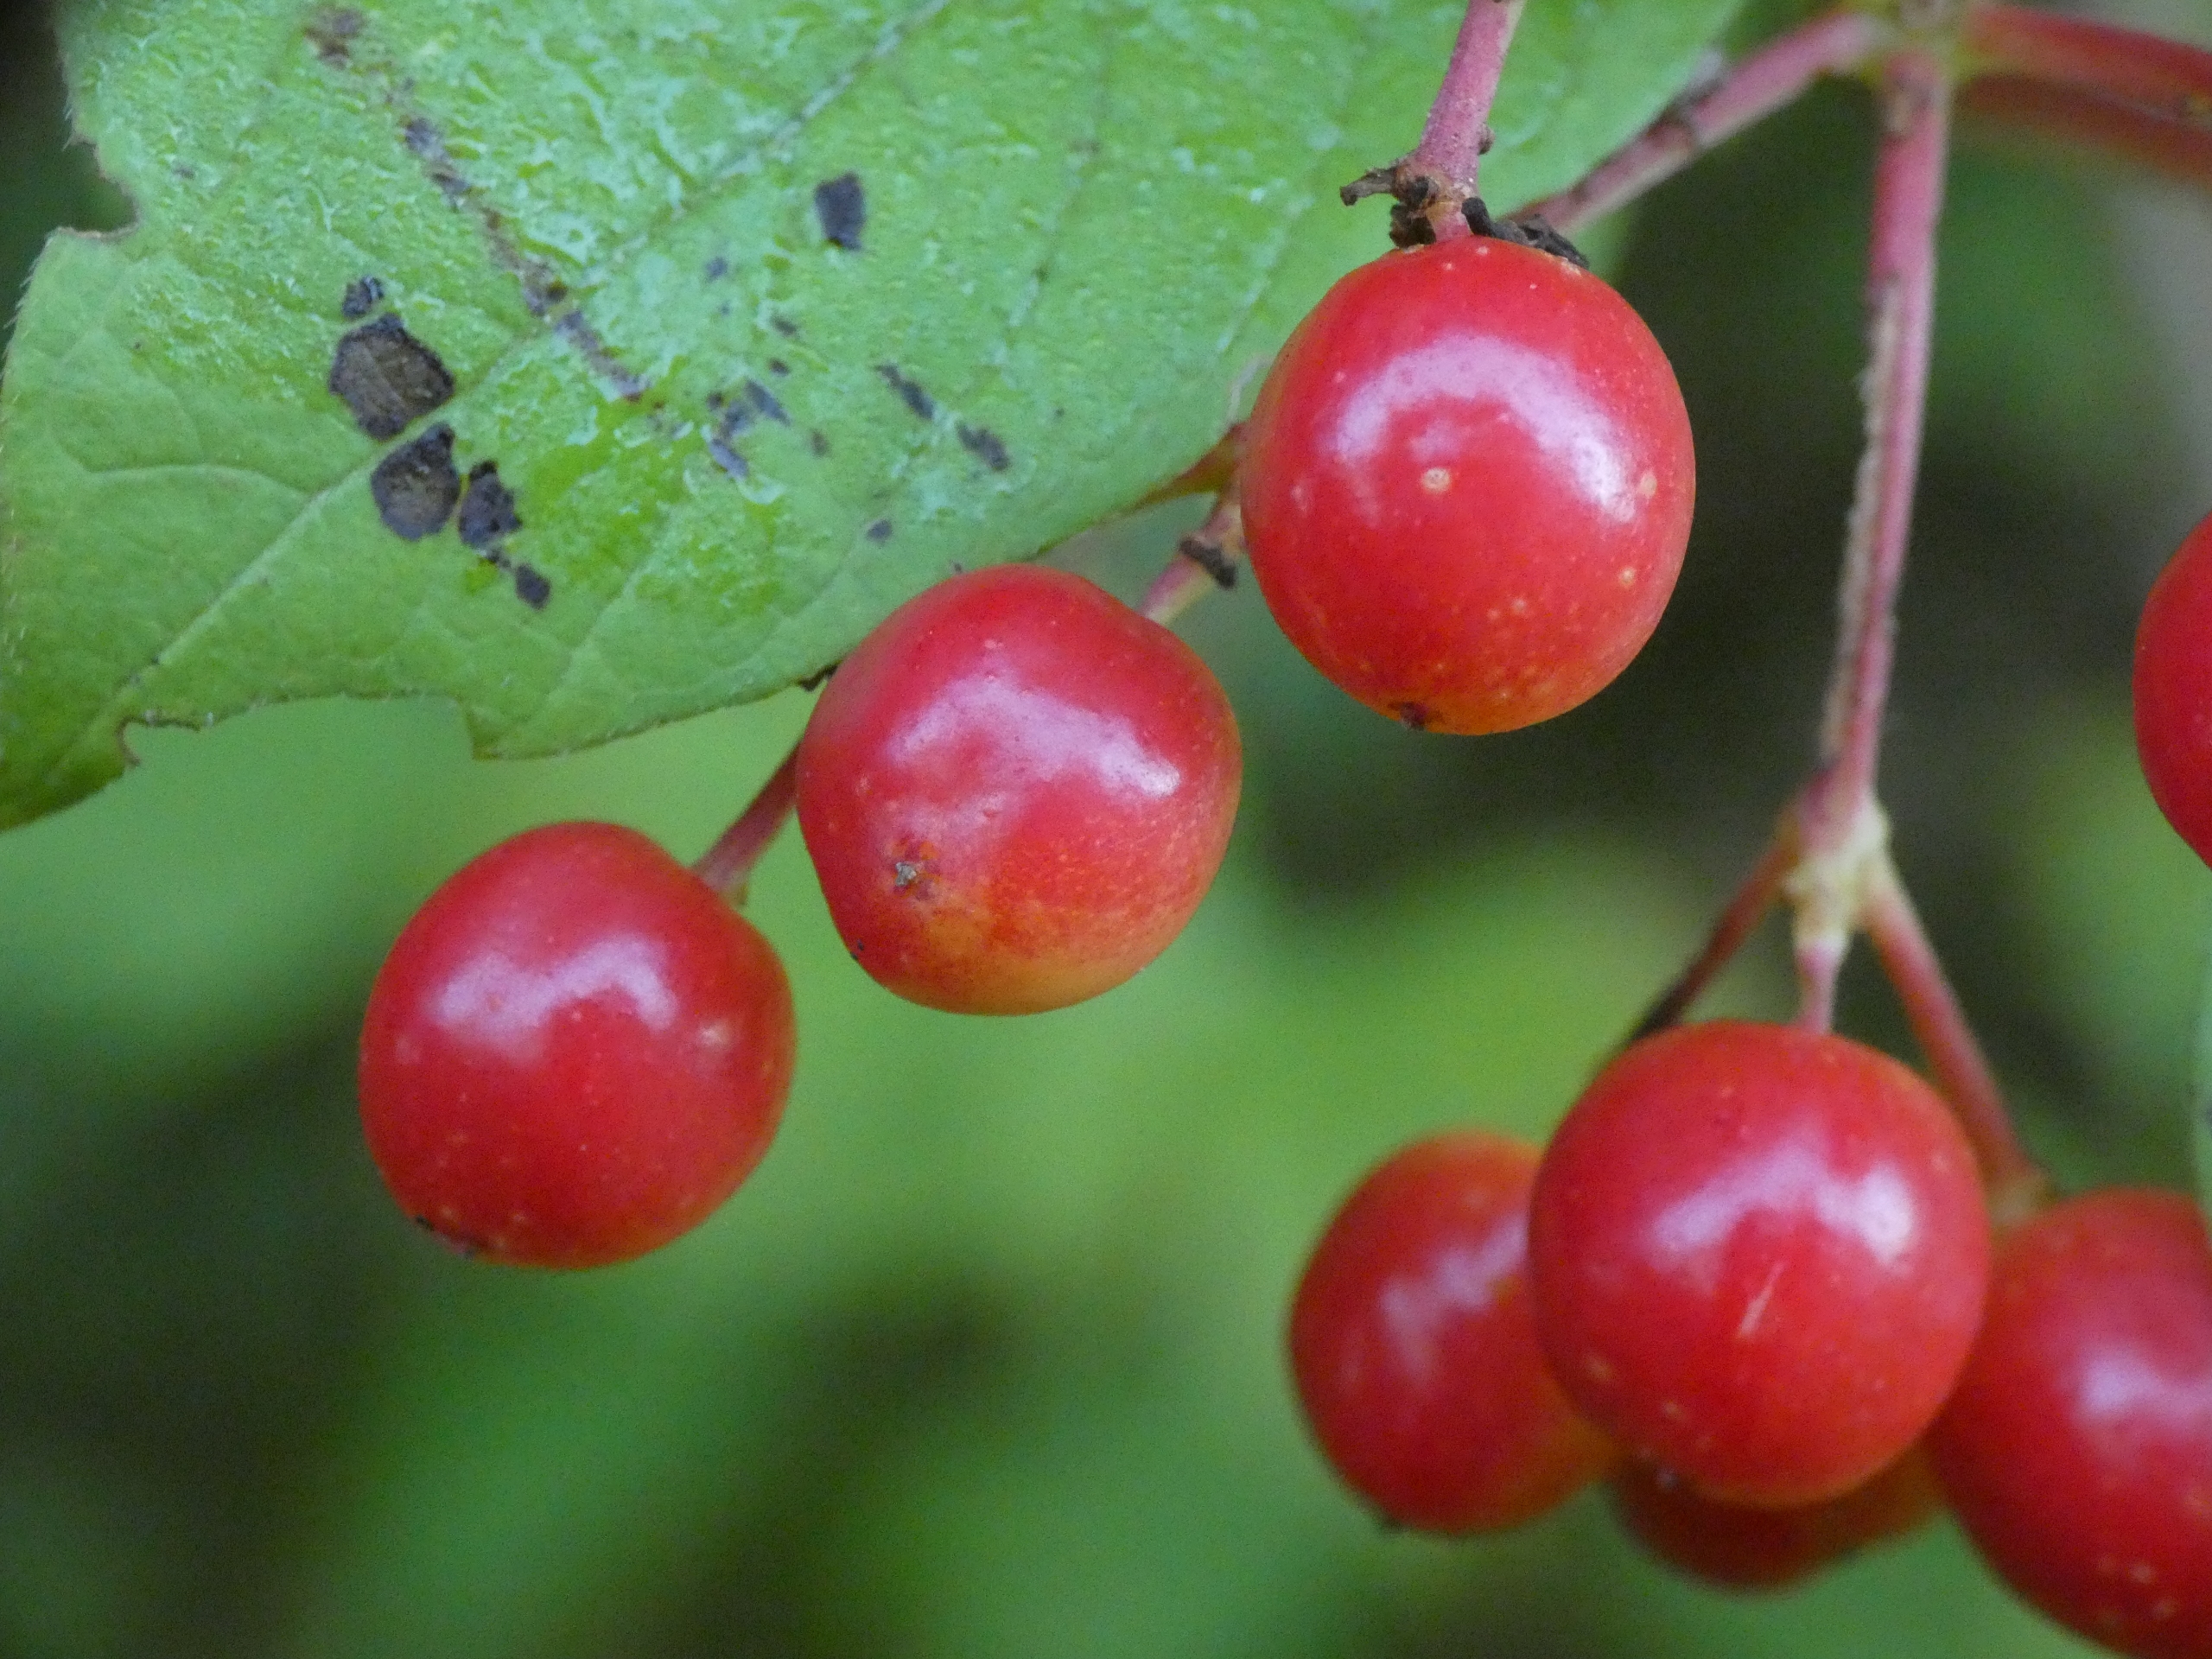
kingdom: Plantae
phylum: Tracheophyta
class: Magnoliopsida
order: Dipsacales
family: Viburnaceae
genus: Viburnum
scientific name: Viburnum opulus
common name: Kvalkved
